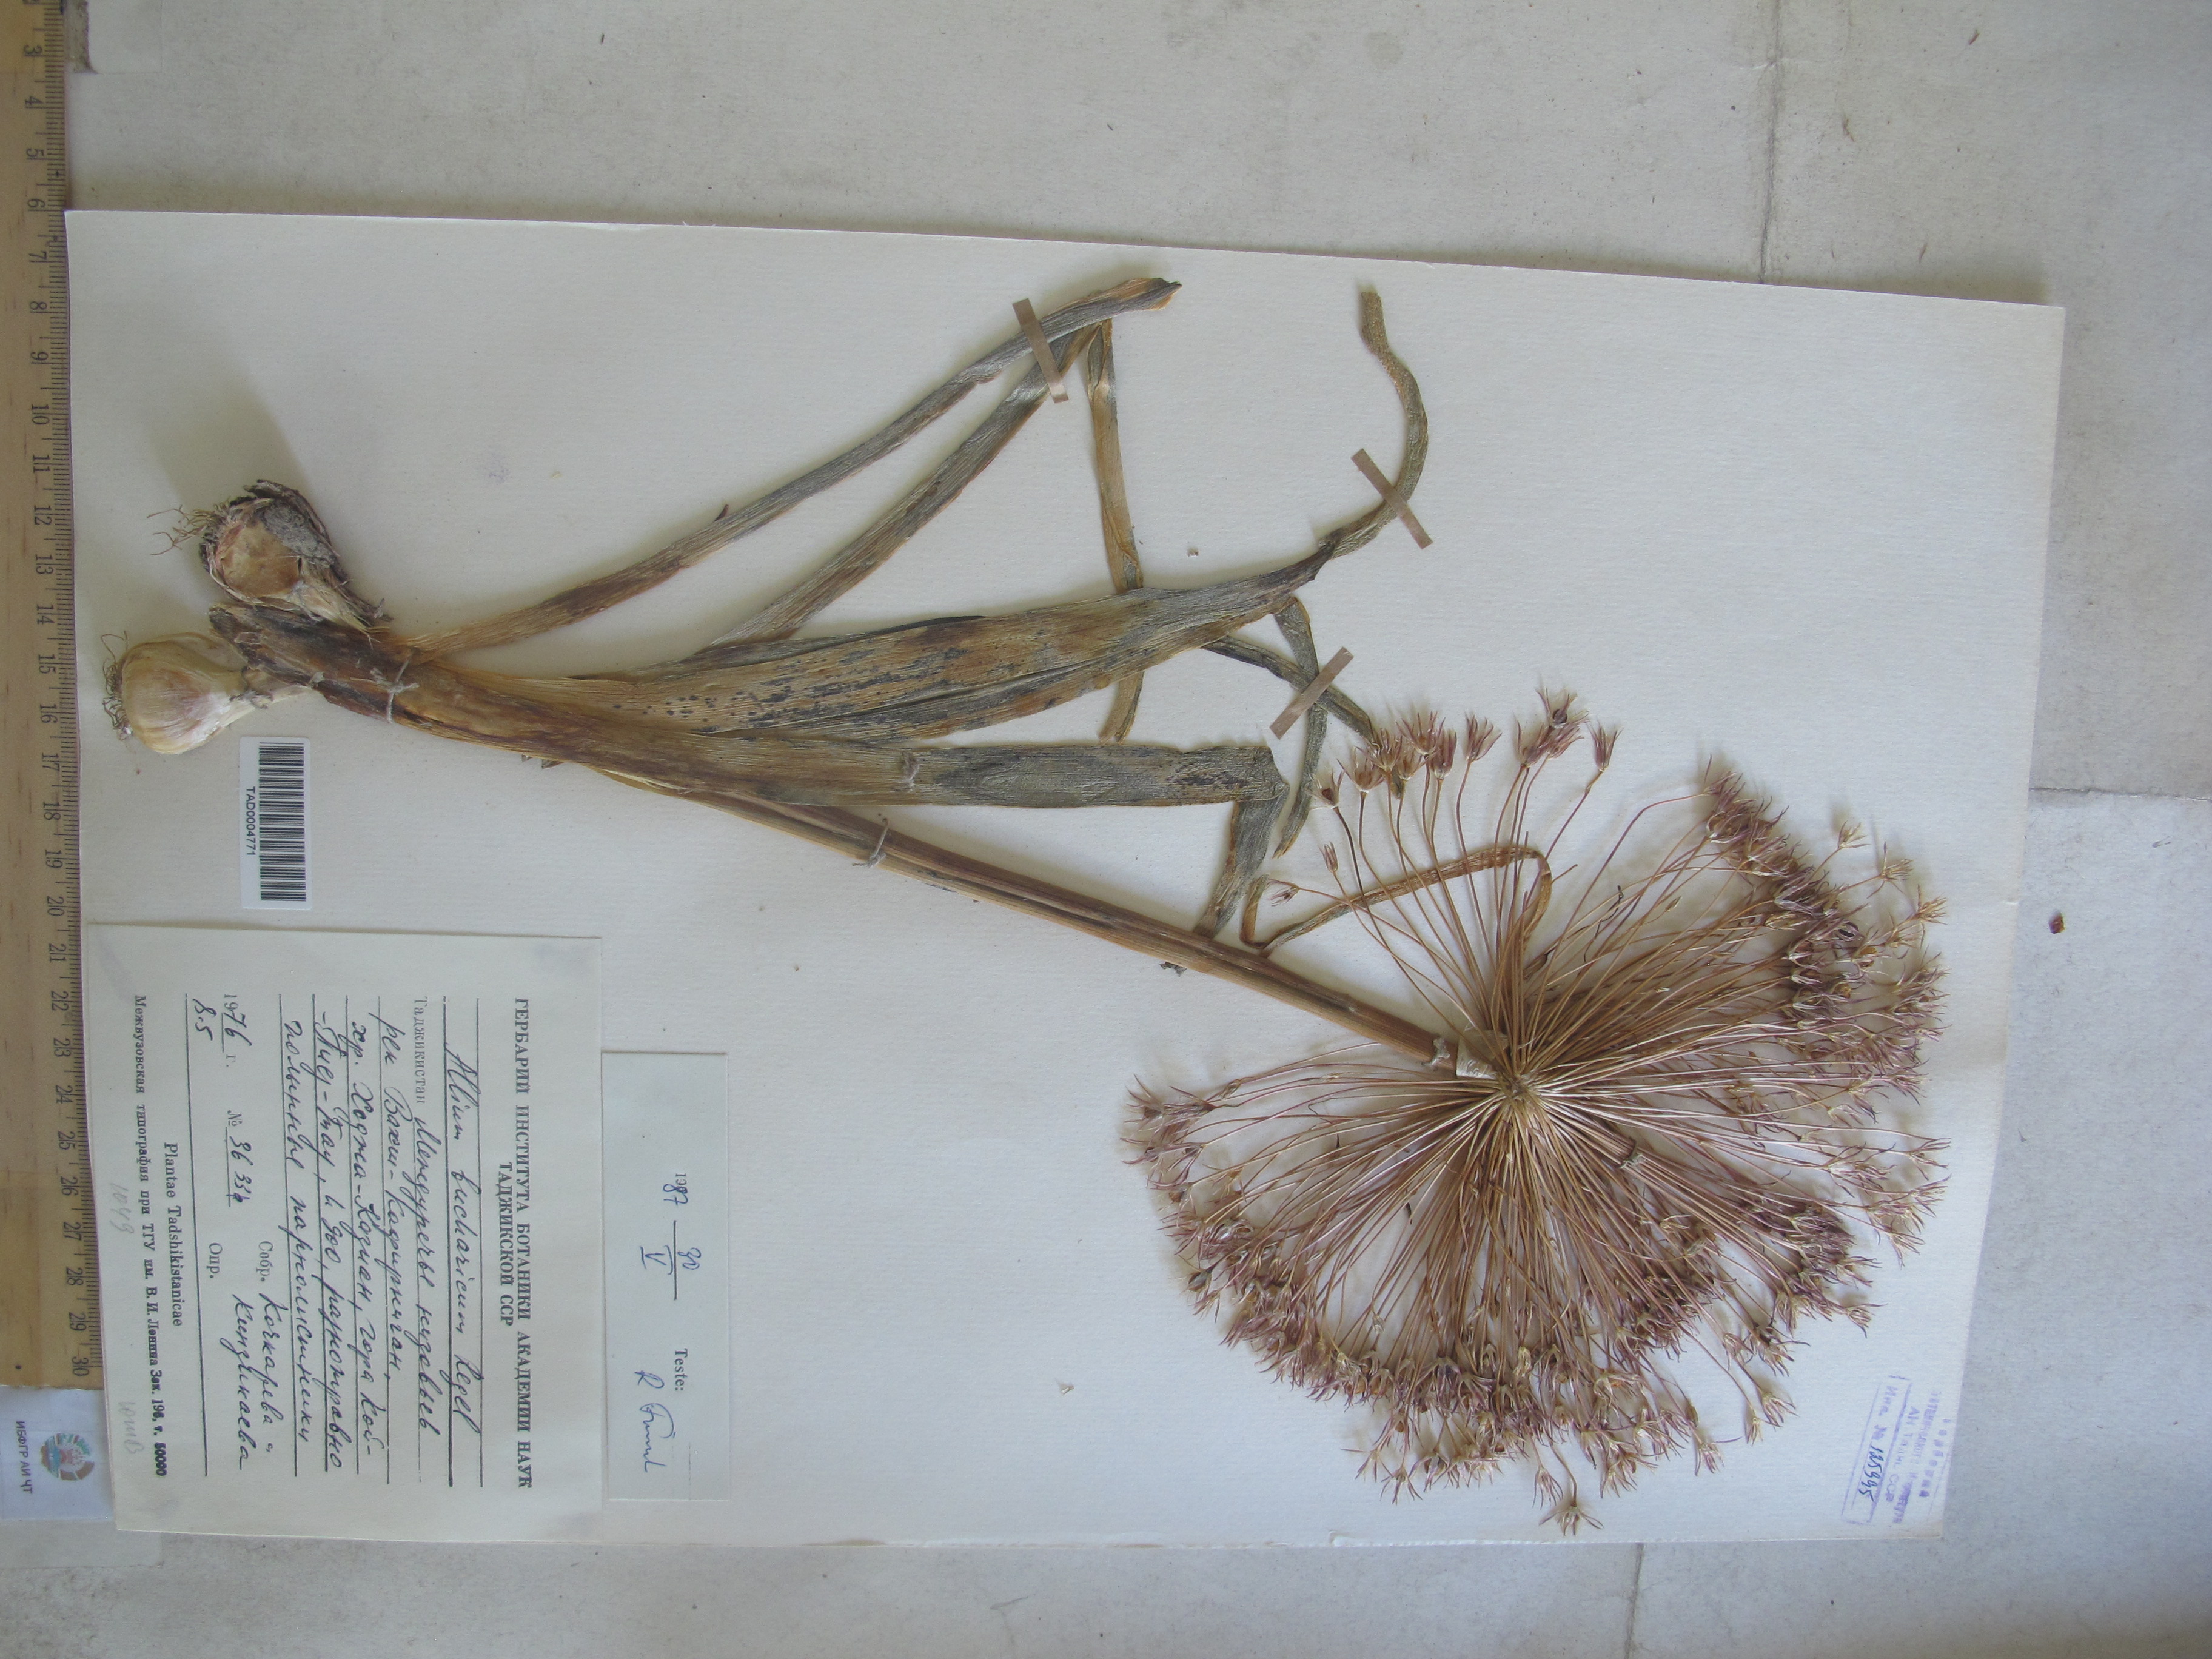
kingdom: Plantae
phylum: Tracheophyta
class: Liliopsida
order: Asparagales
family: Amaryllidaceae
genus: Allium
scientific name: Allium bucharicum
